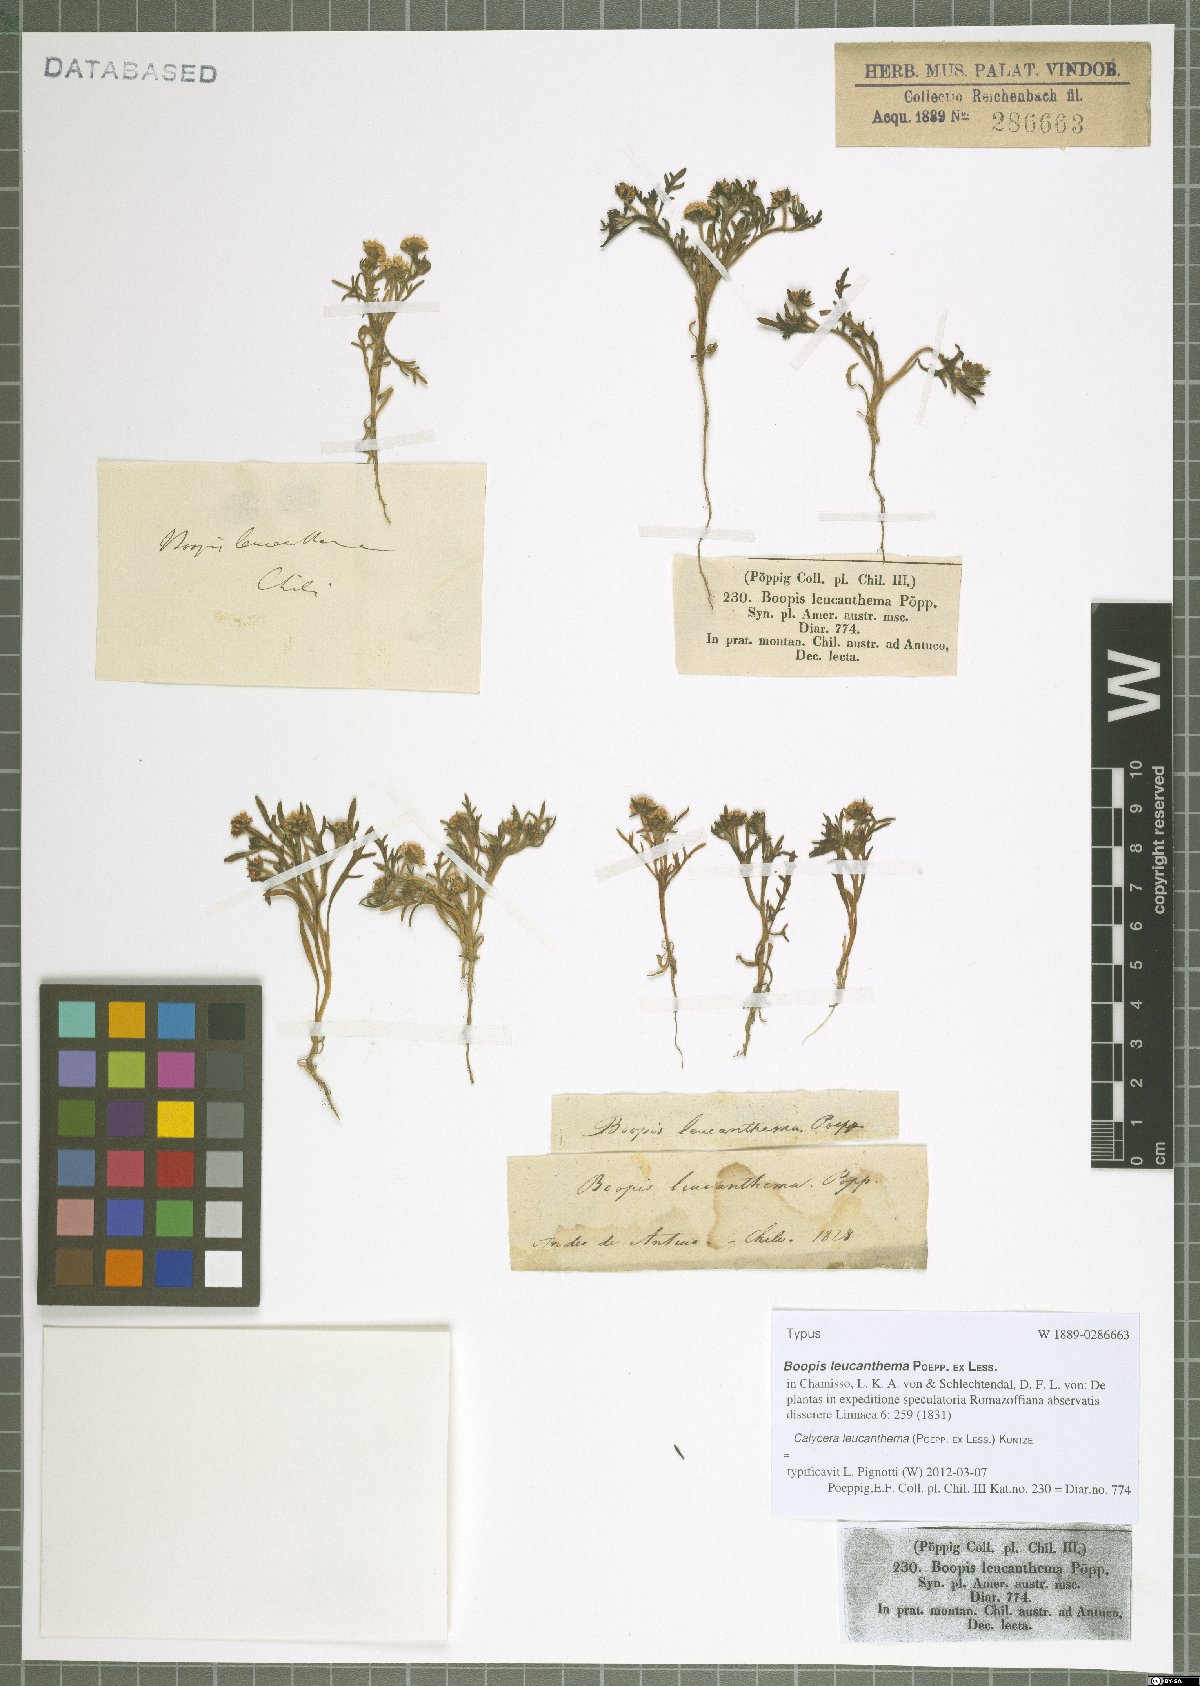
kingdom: Plantae
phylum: Tracheophyta
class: Magnoliopsida
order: Asterales
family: Calyceraceae
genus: Leucocera
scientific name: Leucocera leucanthema
